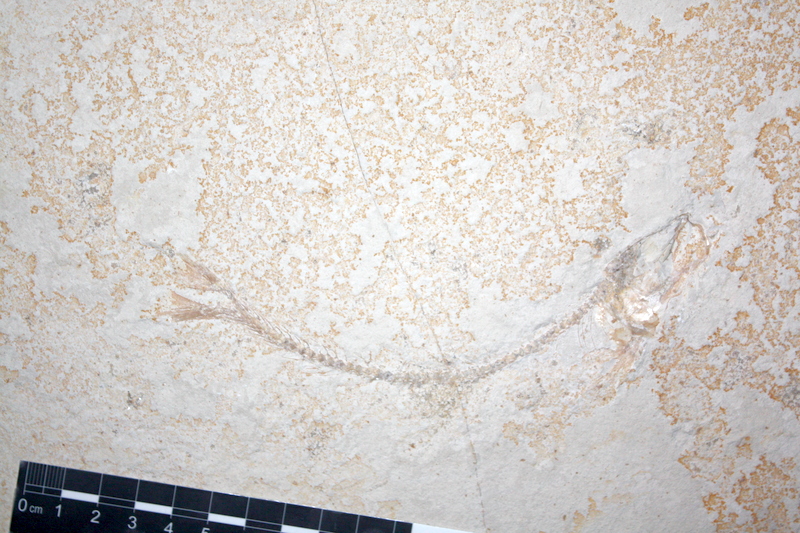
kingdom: Animalia
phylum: Chordata
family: Ascalaboidae
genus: Tharsis
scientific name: Tharsis dubius
